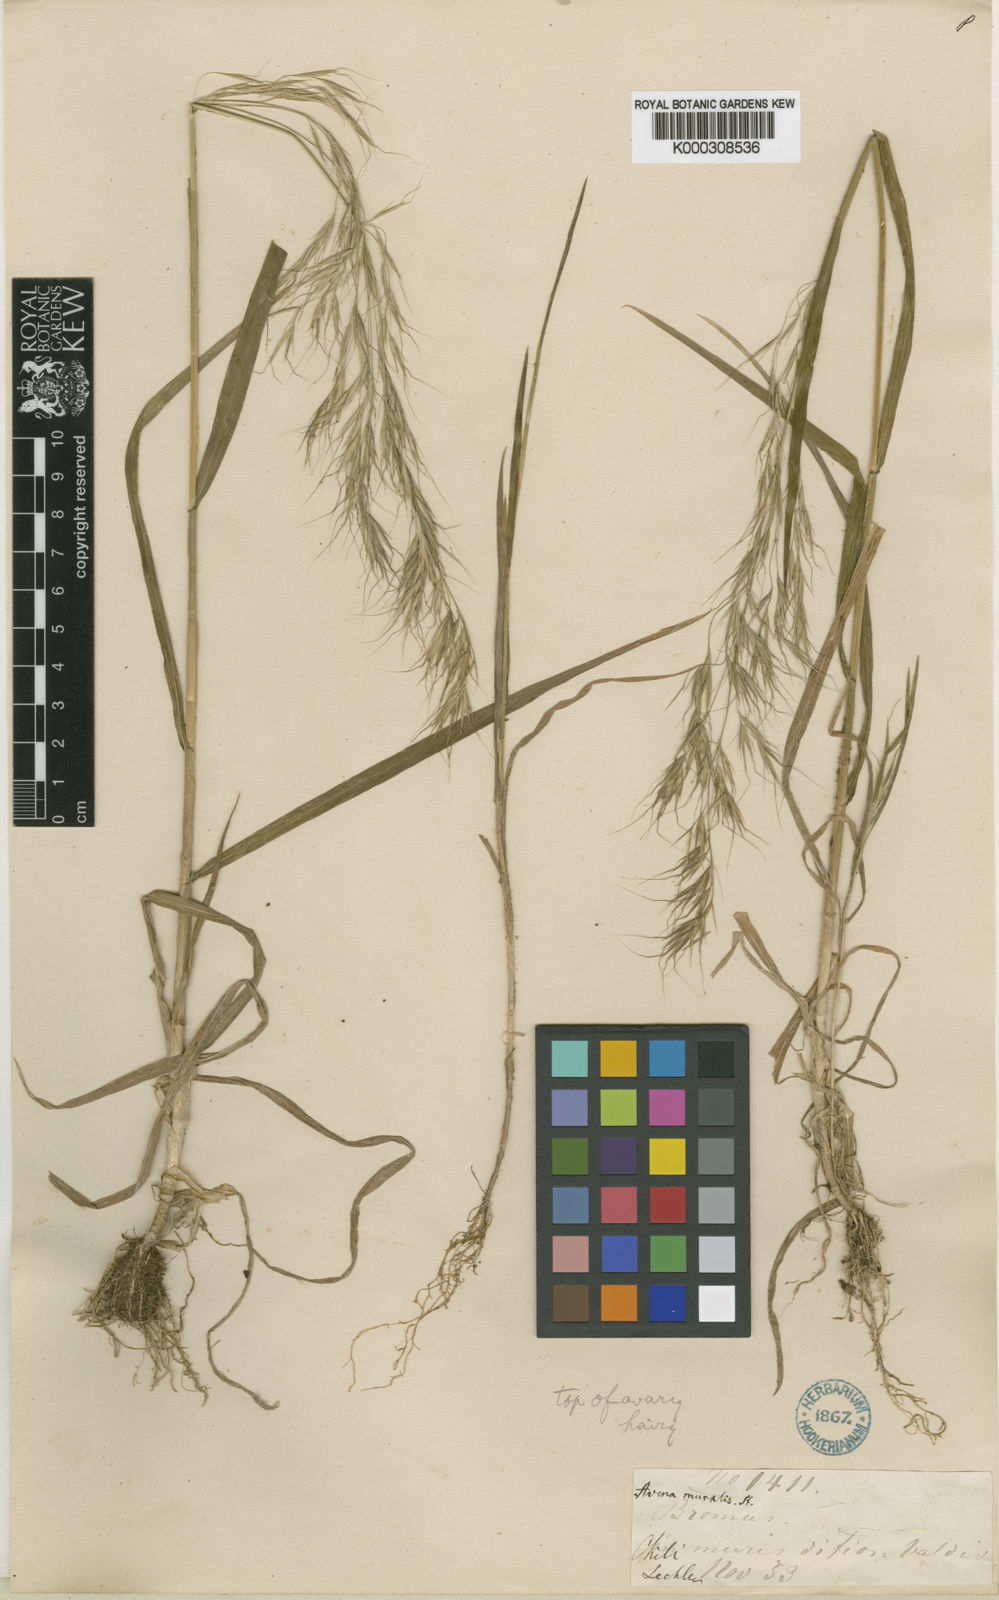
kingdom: Plantae
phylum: Tracheophyta
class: Liliopsida
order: Poales
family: Poaceae
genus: Festuca
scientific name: Festuca myuros
